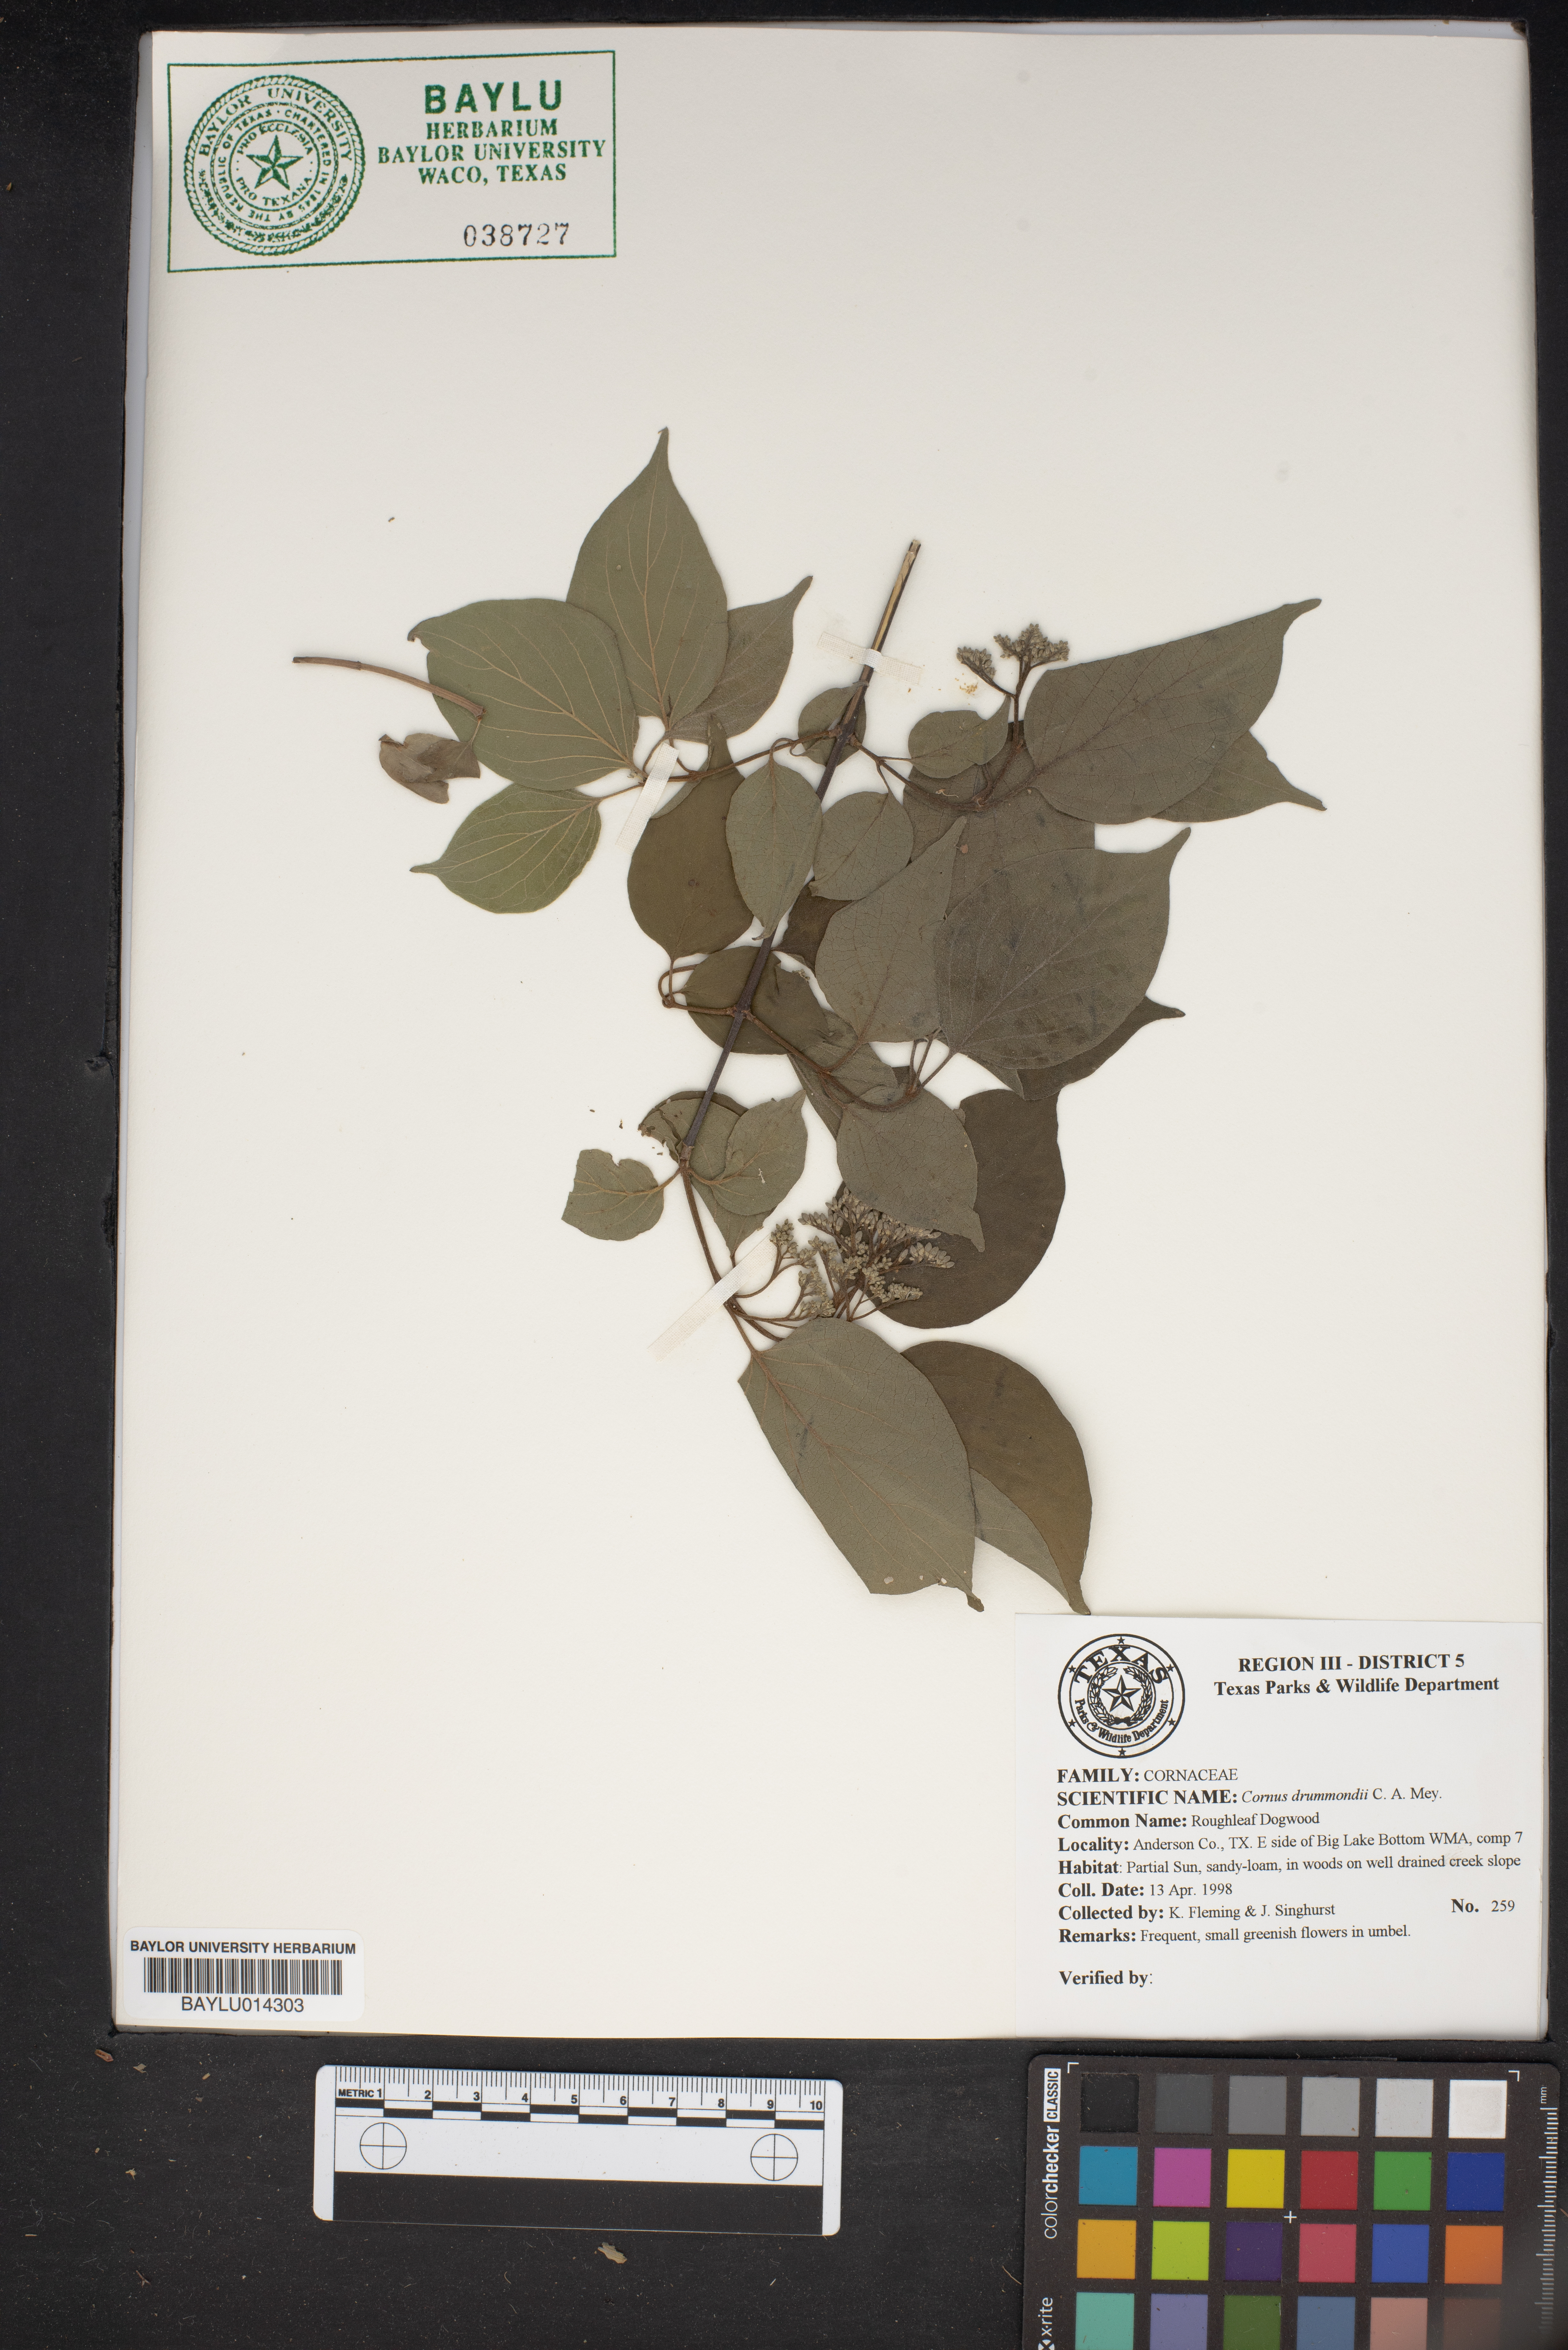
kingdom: Plantae
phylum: Tracheophyta
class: Magnoliopsida
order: Cornales
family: Cornaceae
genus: Cornus
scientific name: Cornus drummondii
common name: Rough-leaf dogwood
